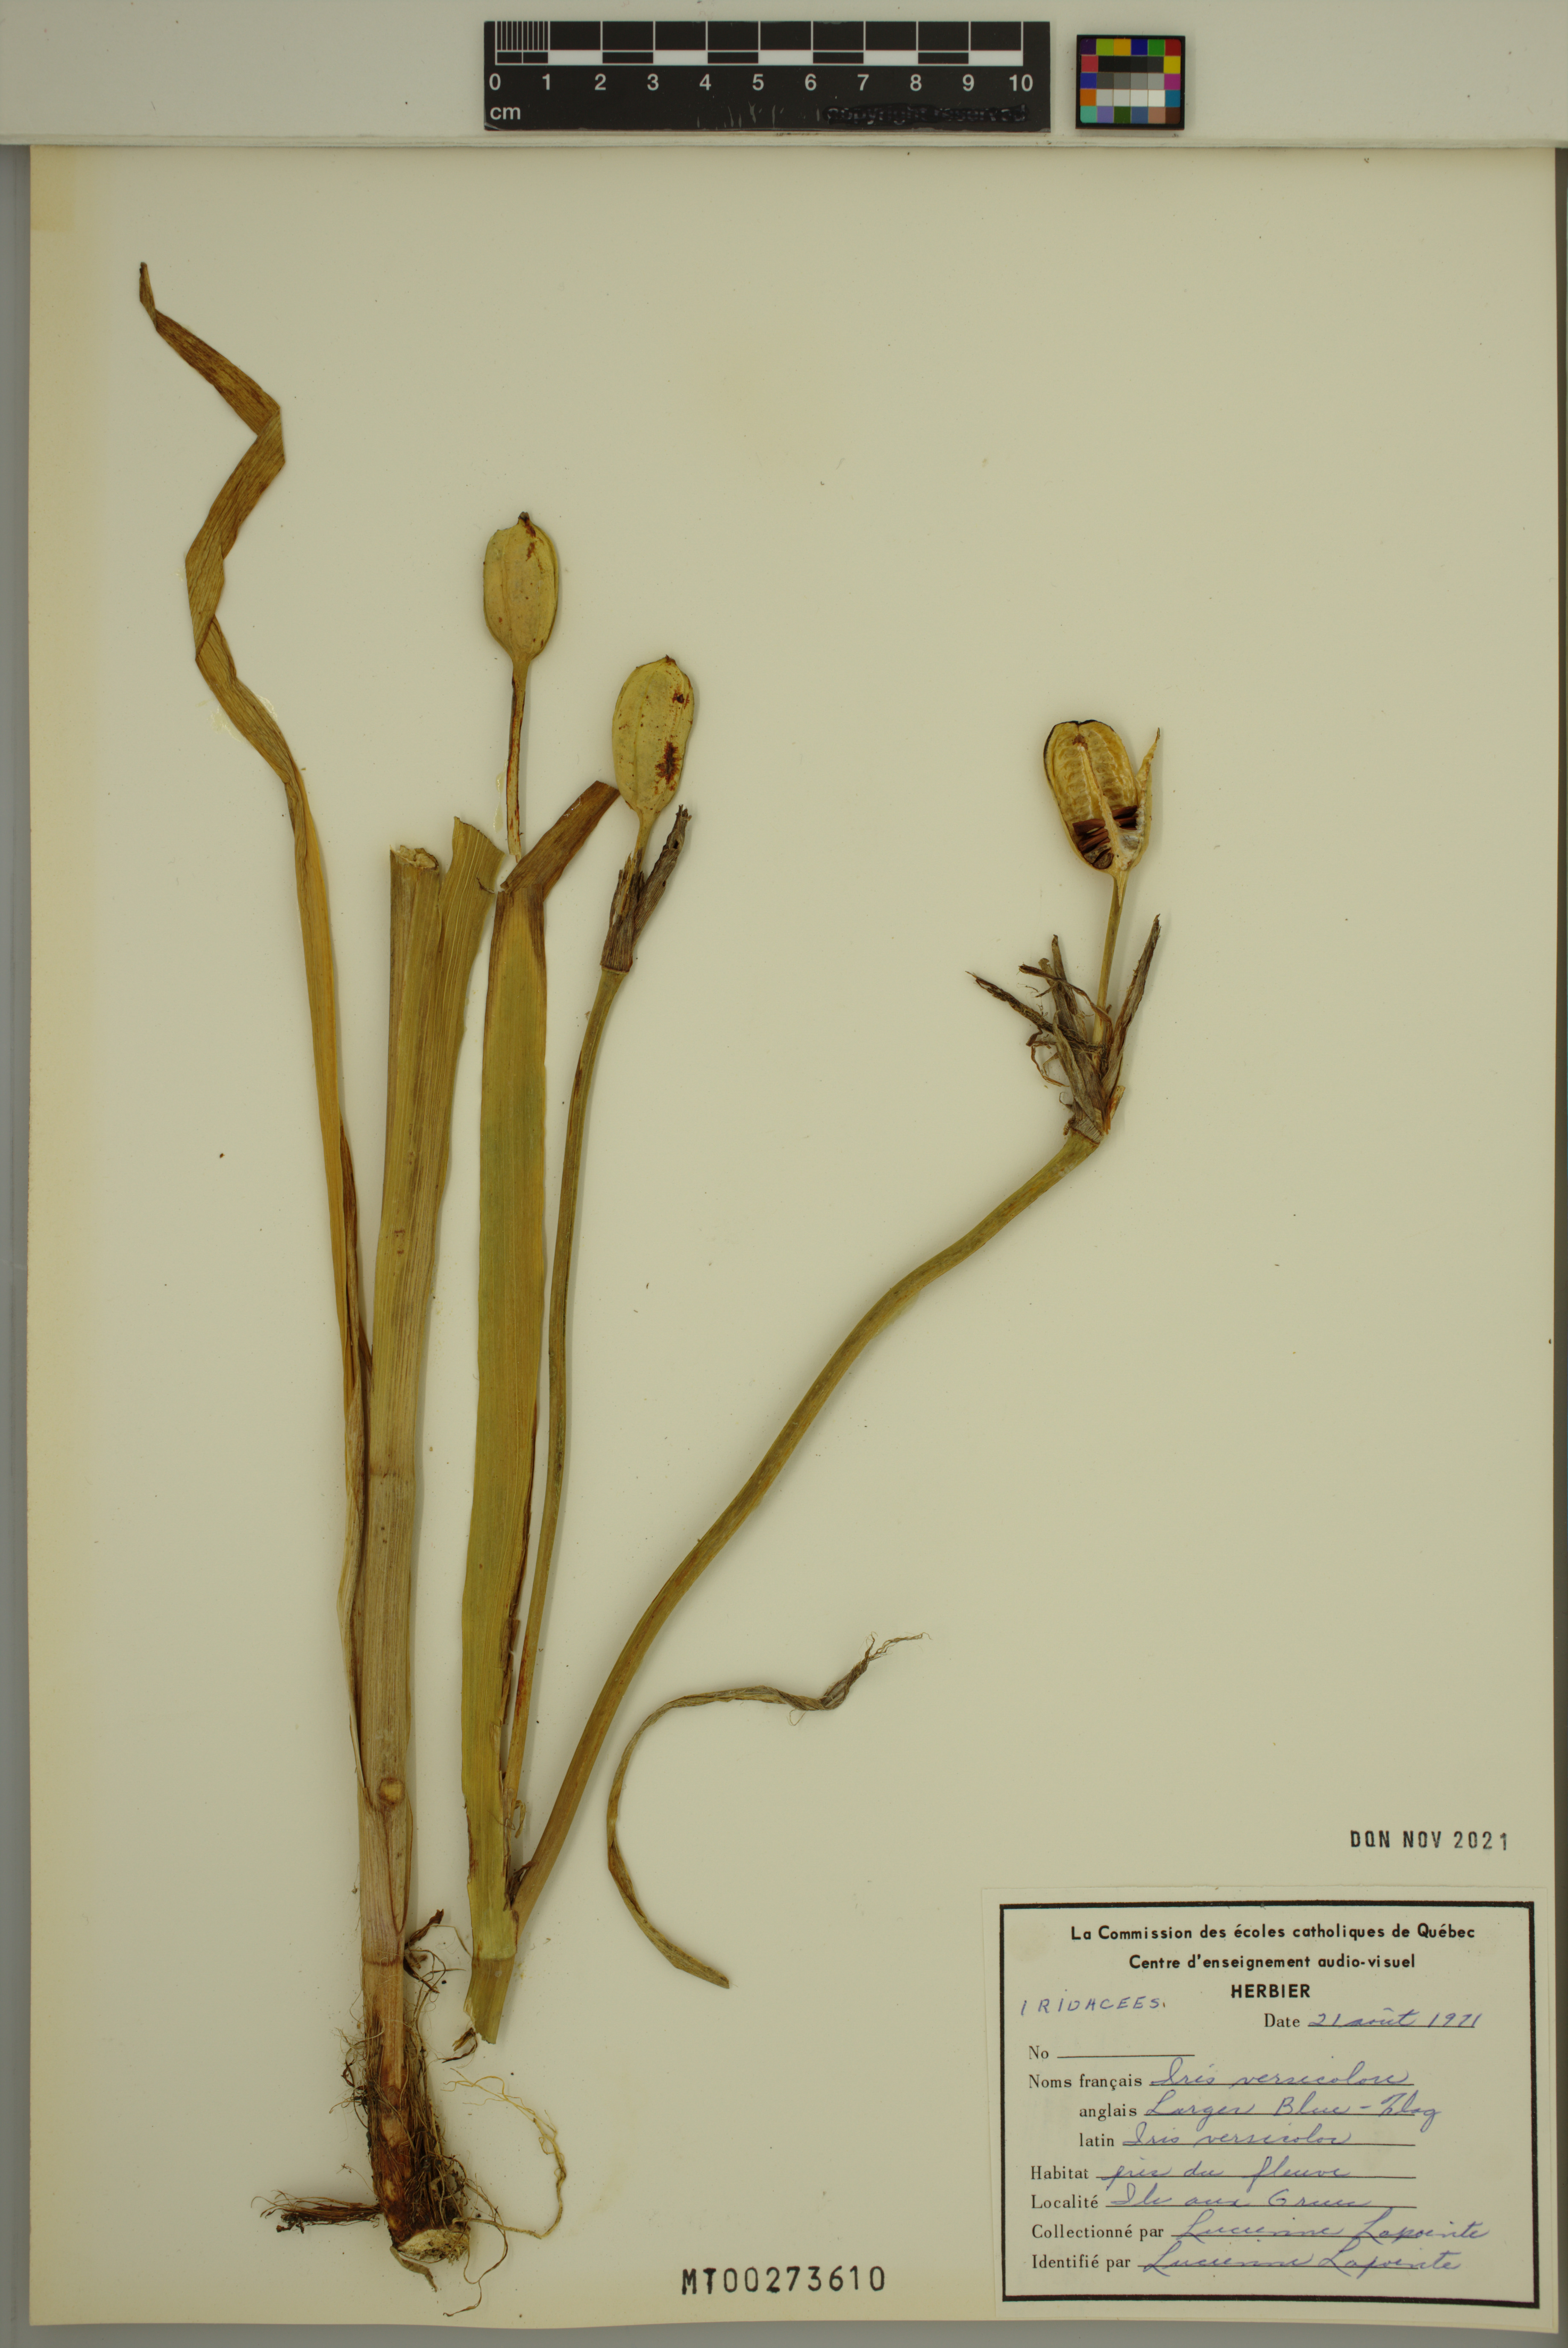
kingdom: Plantae
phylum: Tracheophyta
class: Liliopsida
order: Asparagales
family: Iridaceae
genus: Iris
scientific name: Iris versicolor
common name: Purple iris
